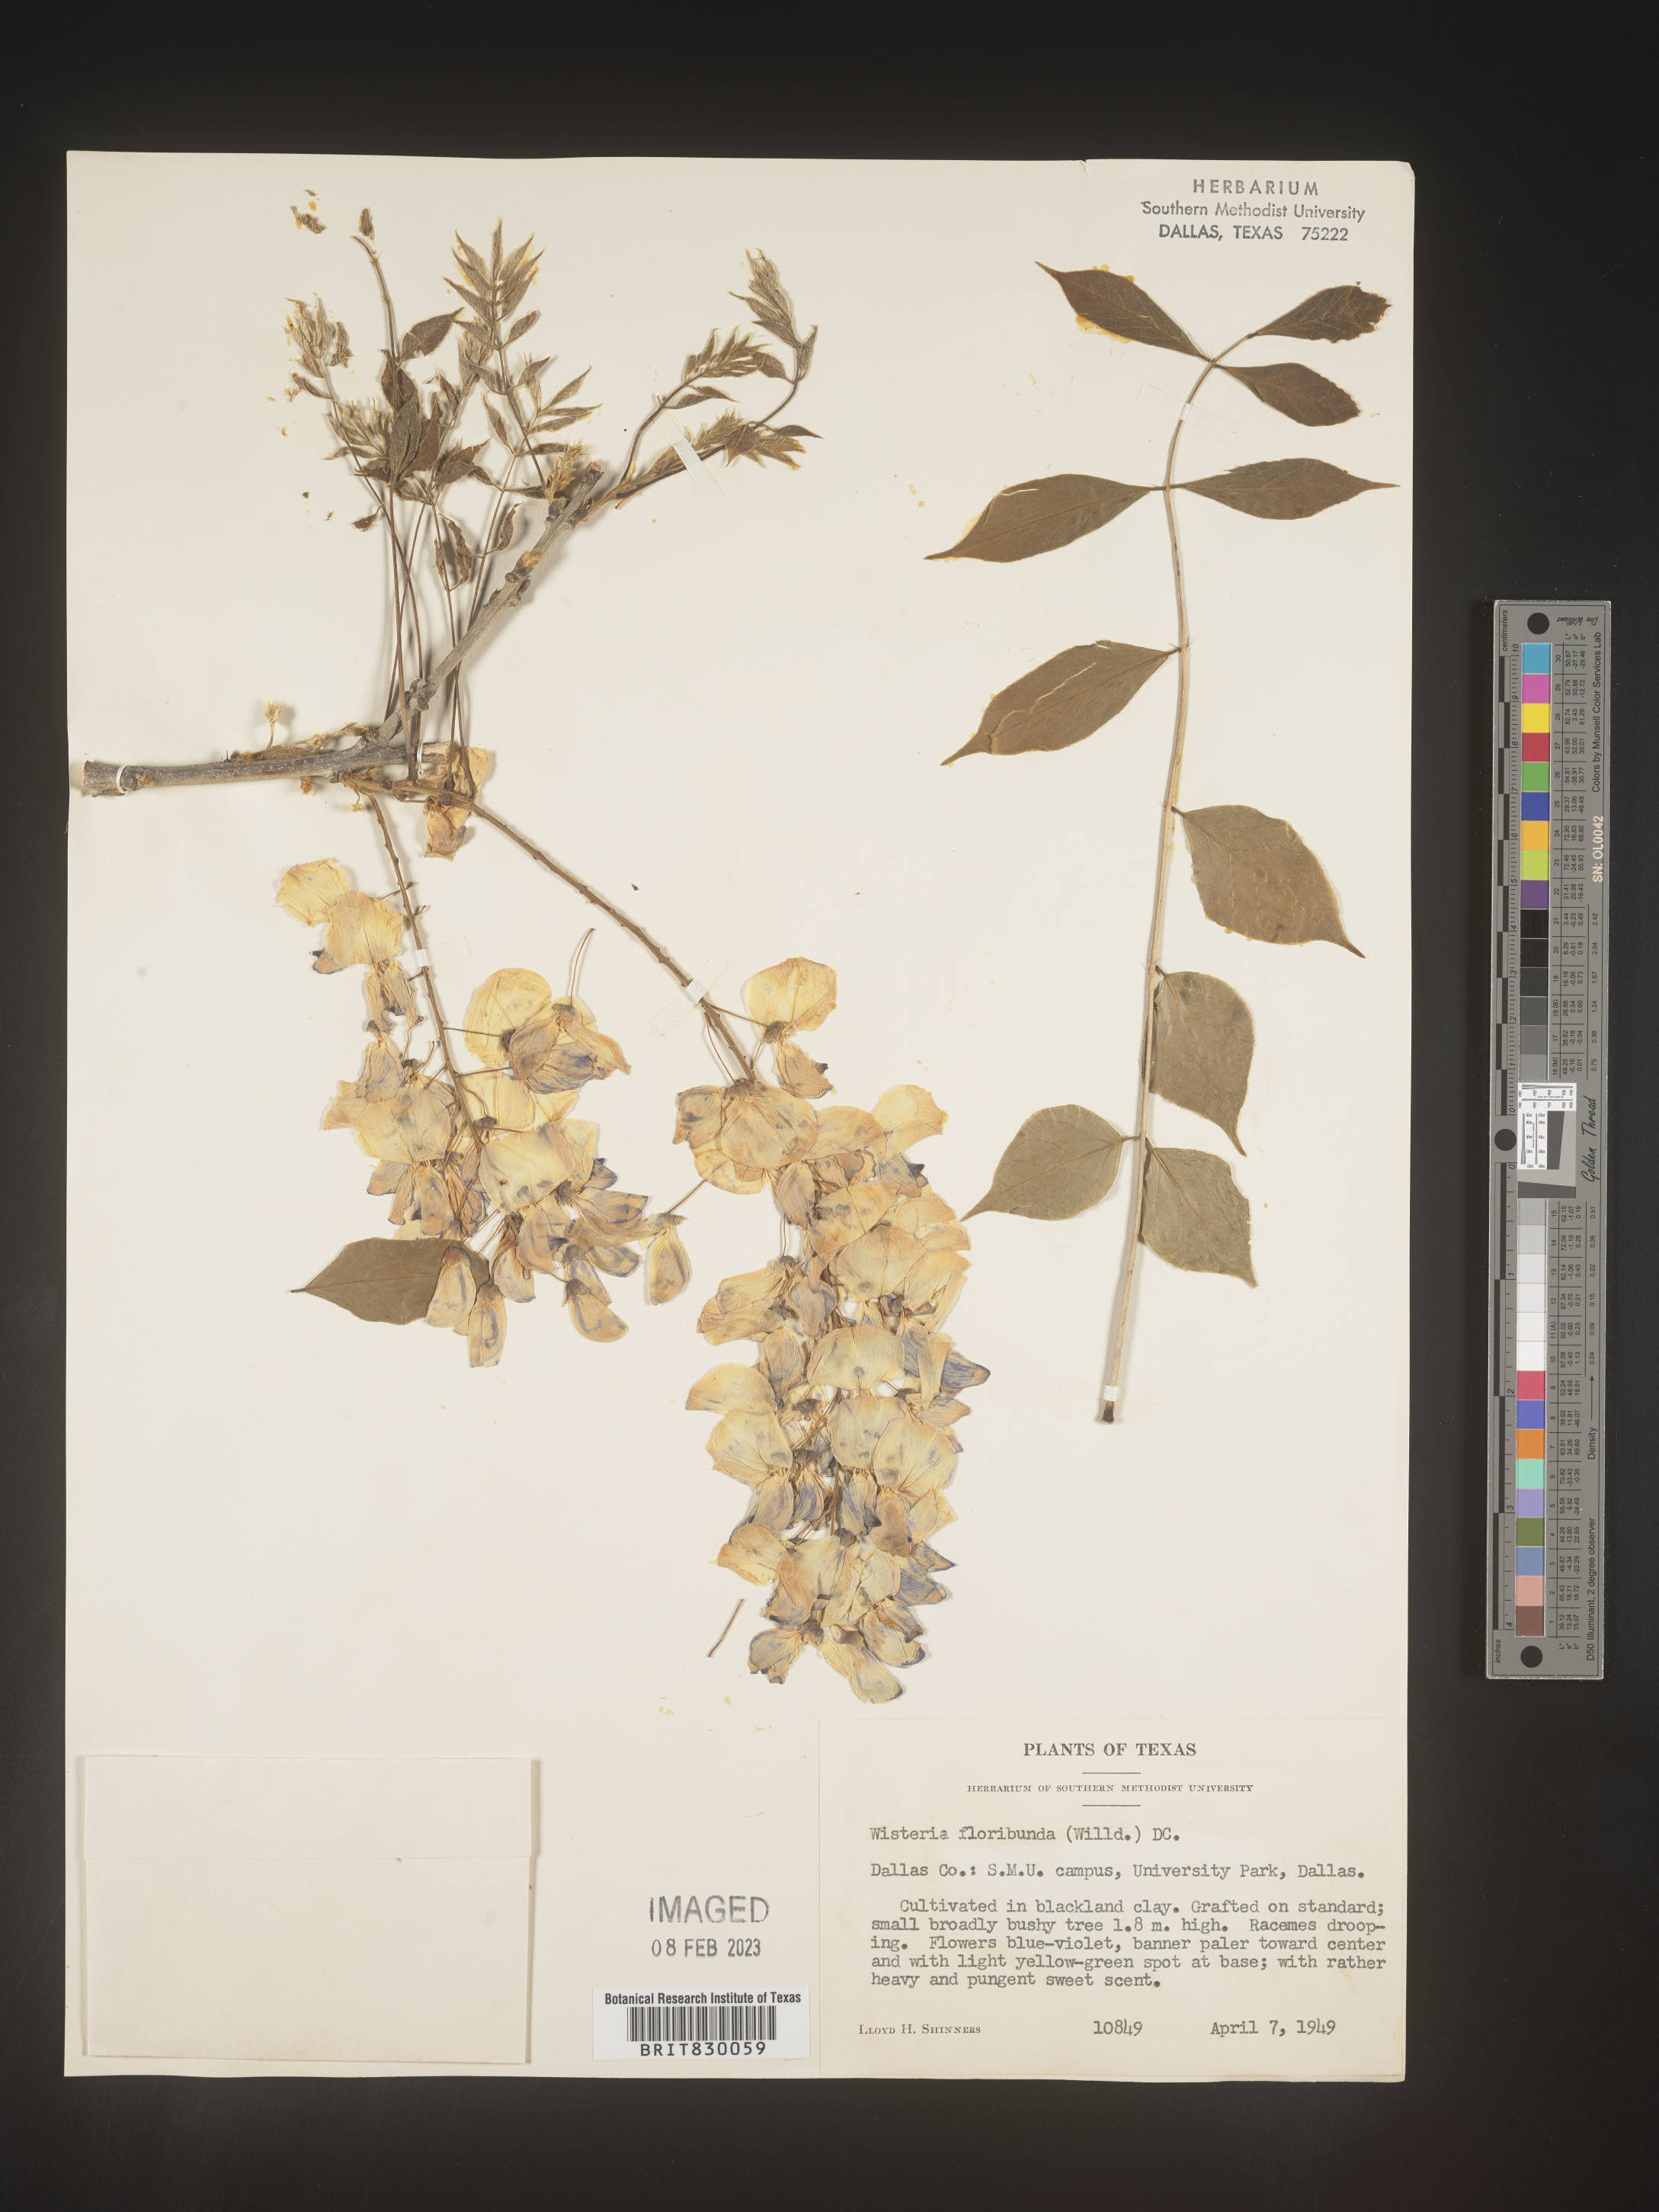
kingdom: Plantae
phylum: Tracheophyta
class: Magnoliopsida
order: Fabales
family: Fabaceae
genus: Wisteria
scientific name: Wisteria
